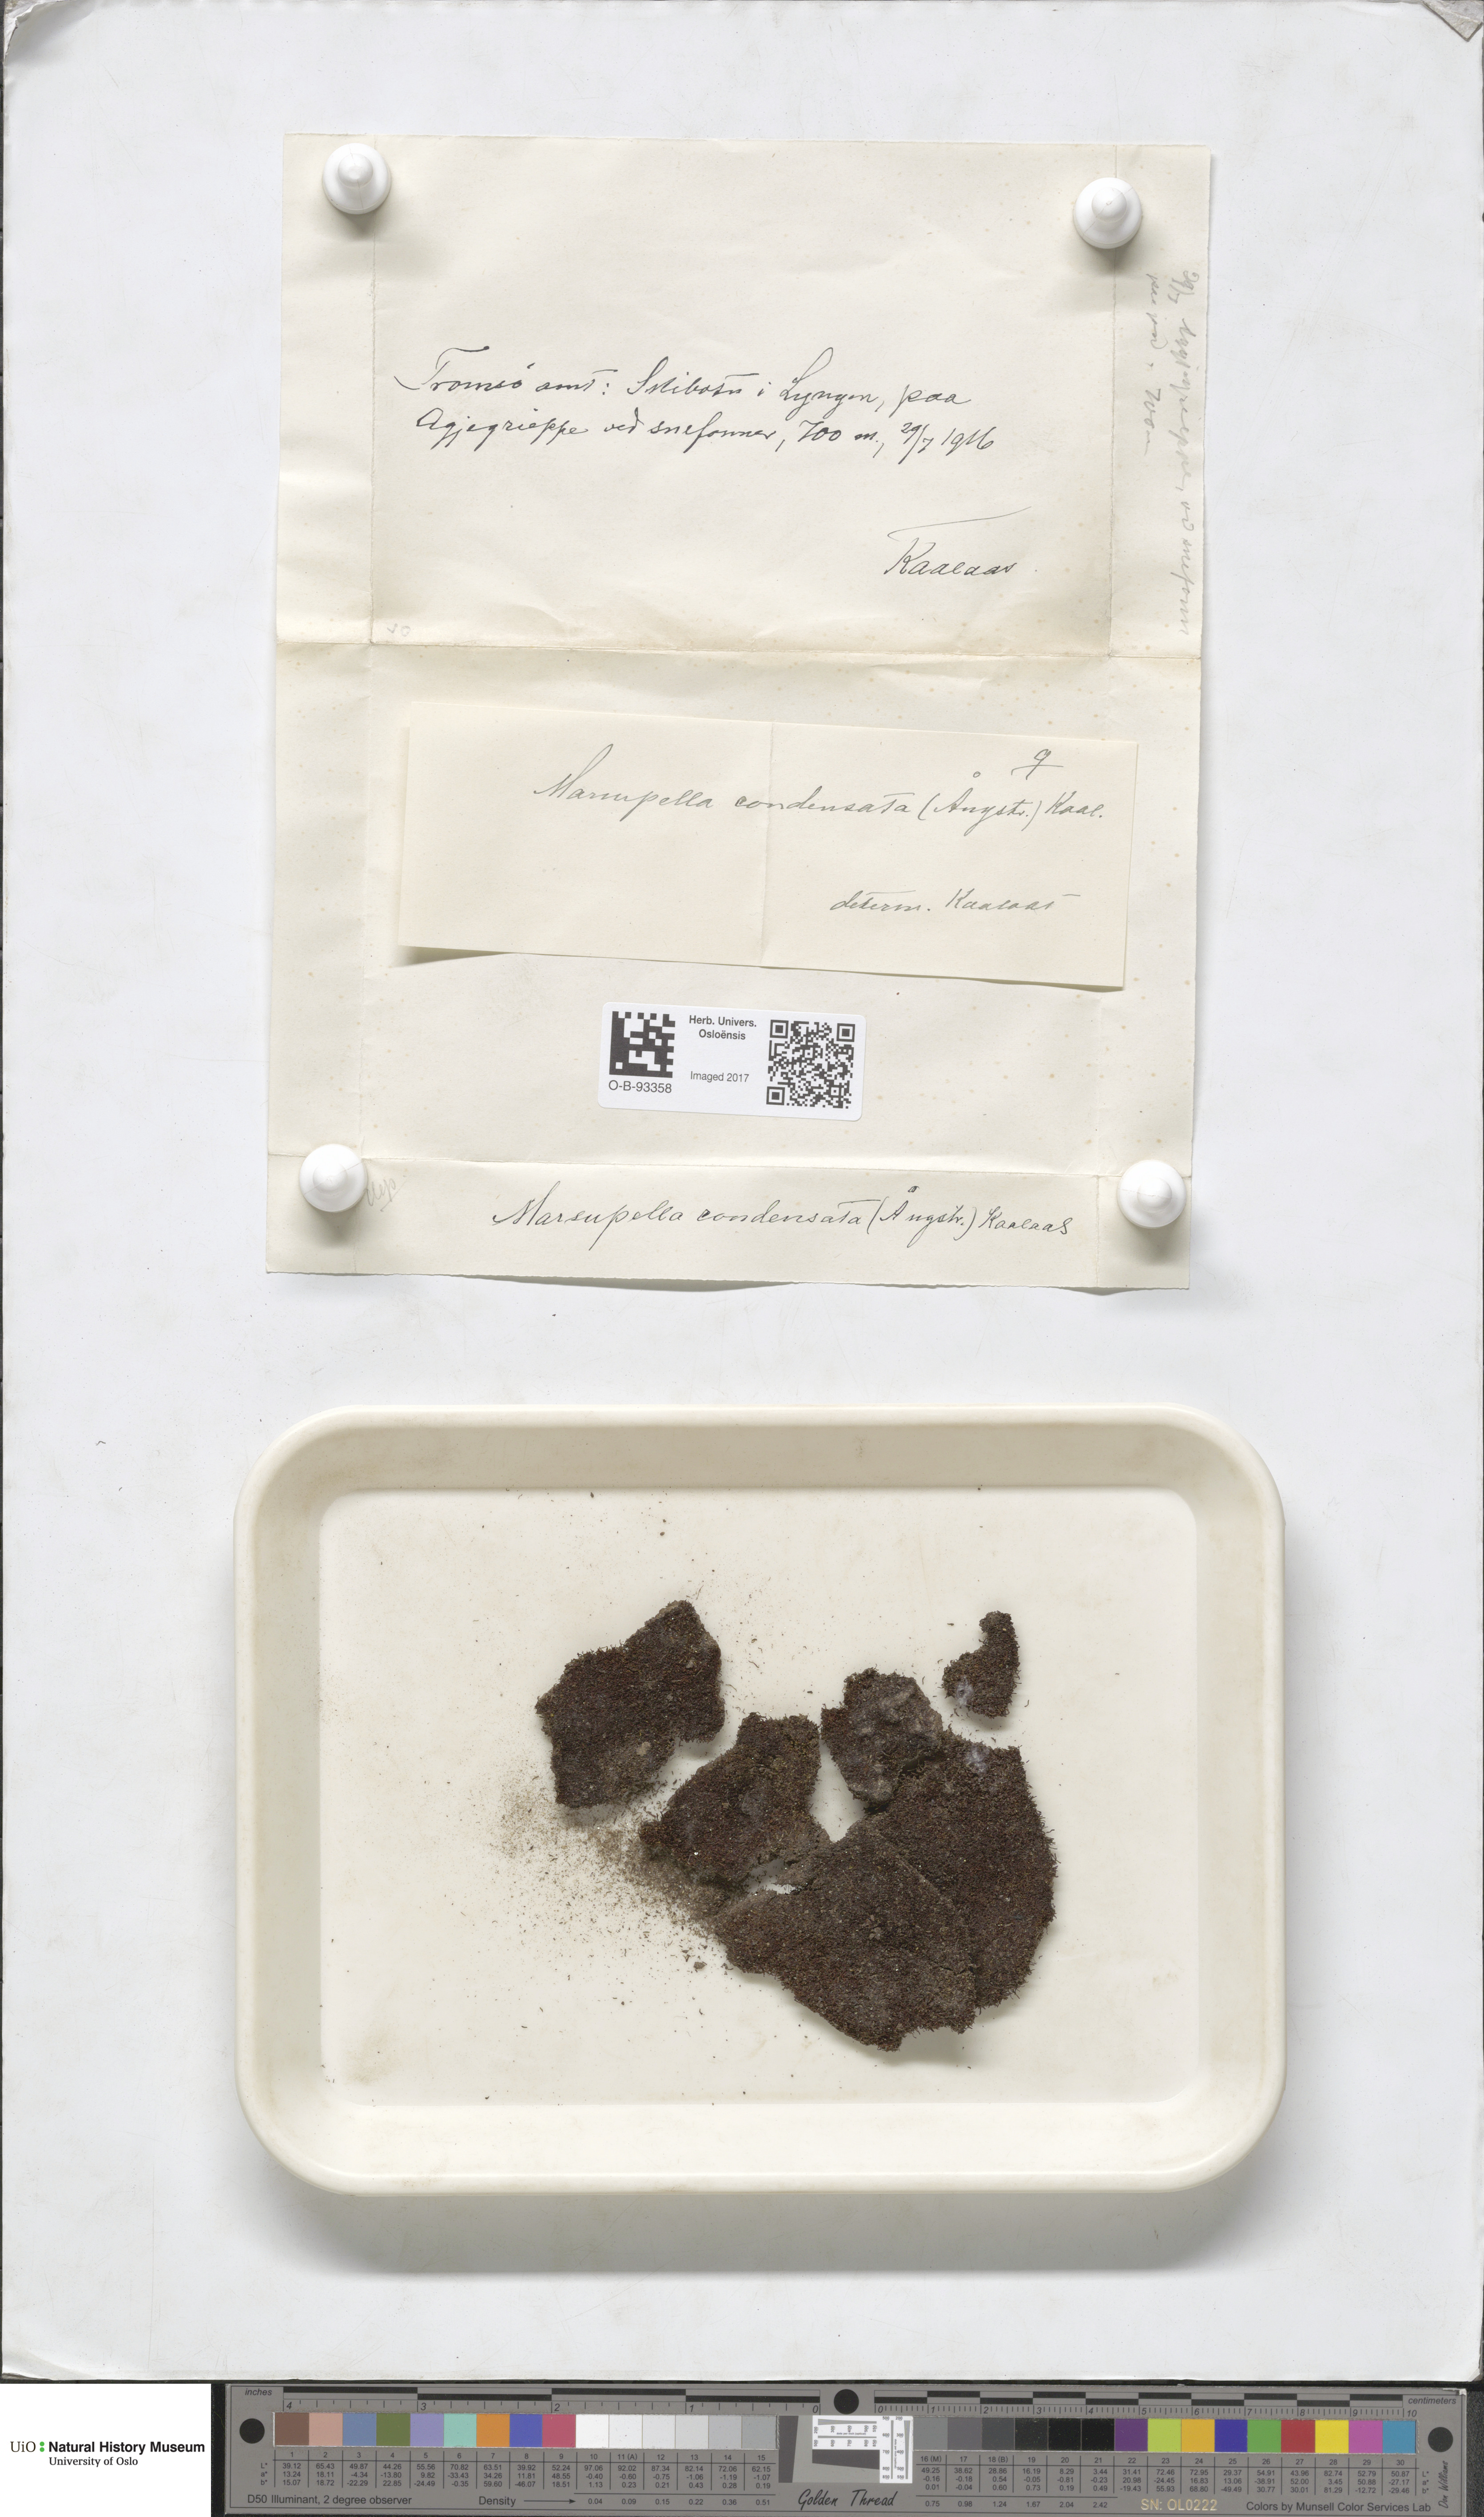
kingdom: Plantae
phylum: Marchantiophyta
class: Jungermanniopsida
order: Jungermanniales
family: Gymnomitriaceae
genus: Gymnomitrion
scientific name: Gymnomitrion brevissimum
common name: Snow rustwort
